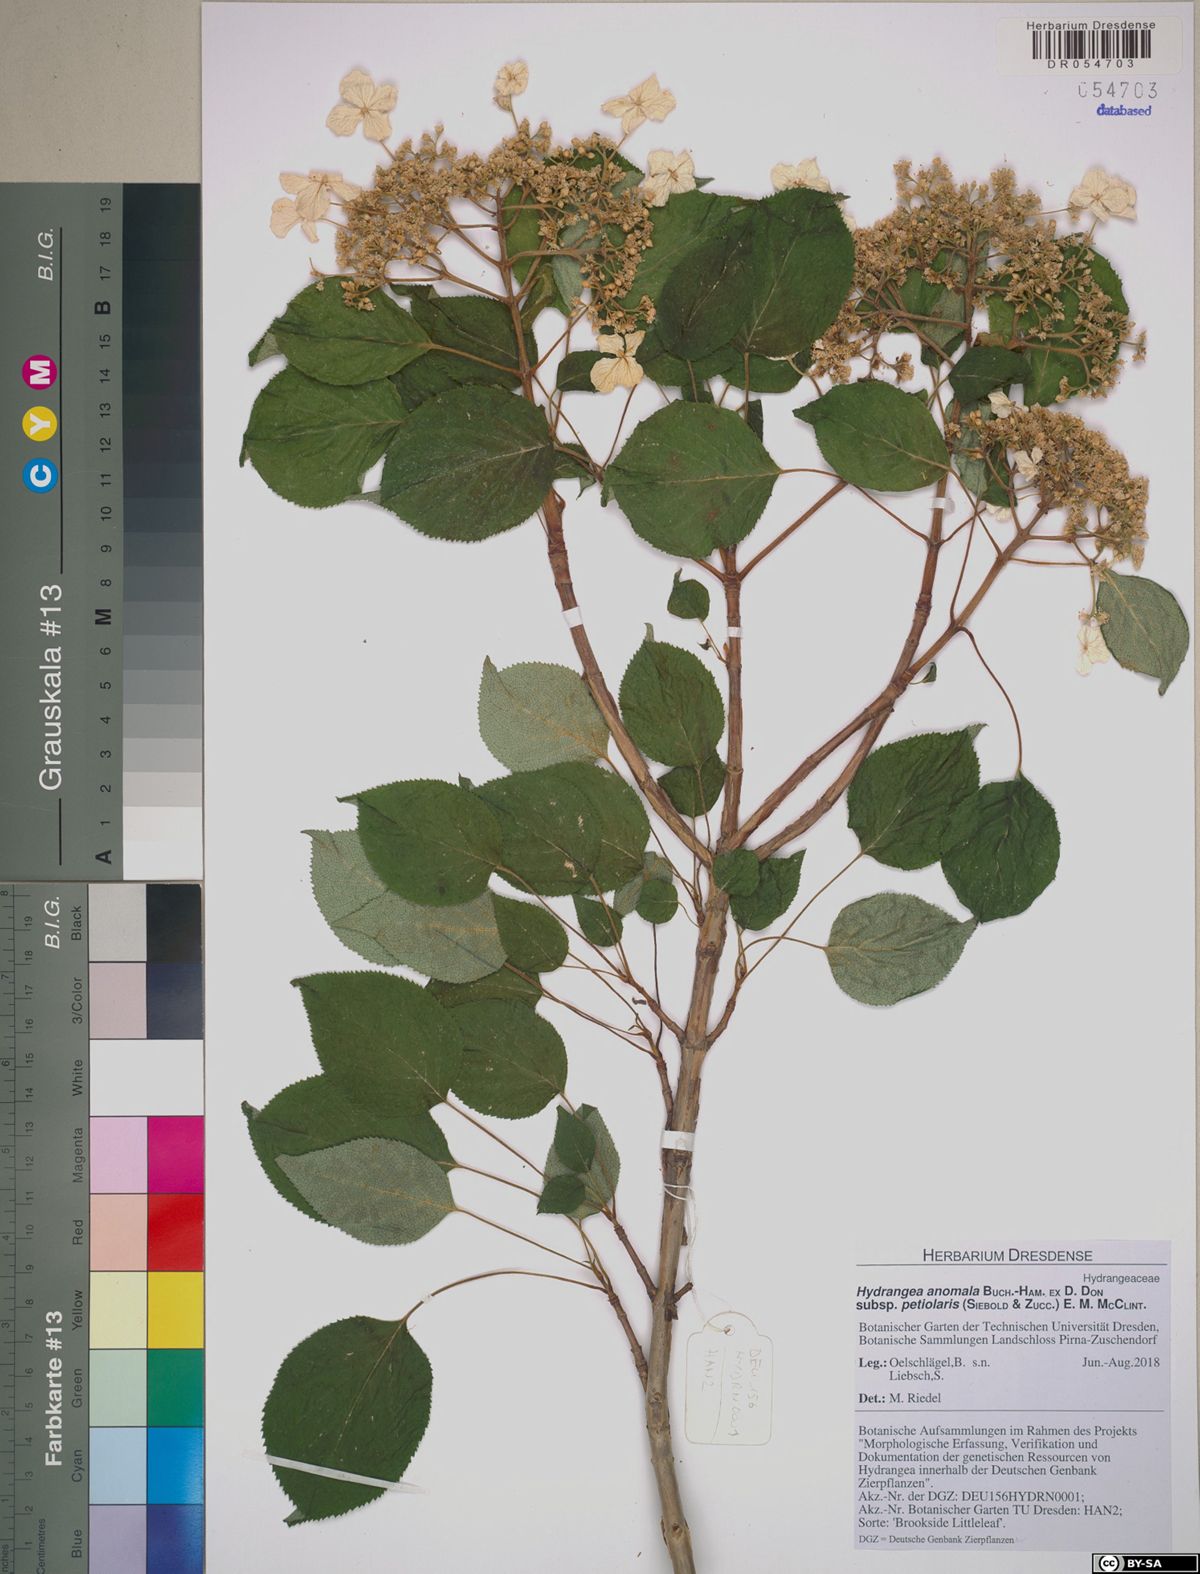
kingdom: Plantae
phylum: Tracheophyta
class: Magnoliopsida
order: Cornales
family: Hydrangeaceae
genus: Hydrangea
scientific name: Hydrangea petiolaris
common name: Japanese climbing hydrangea
